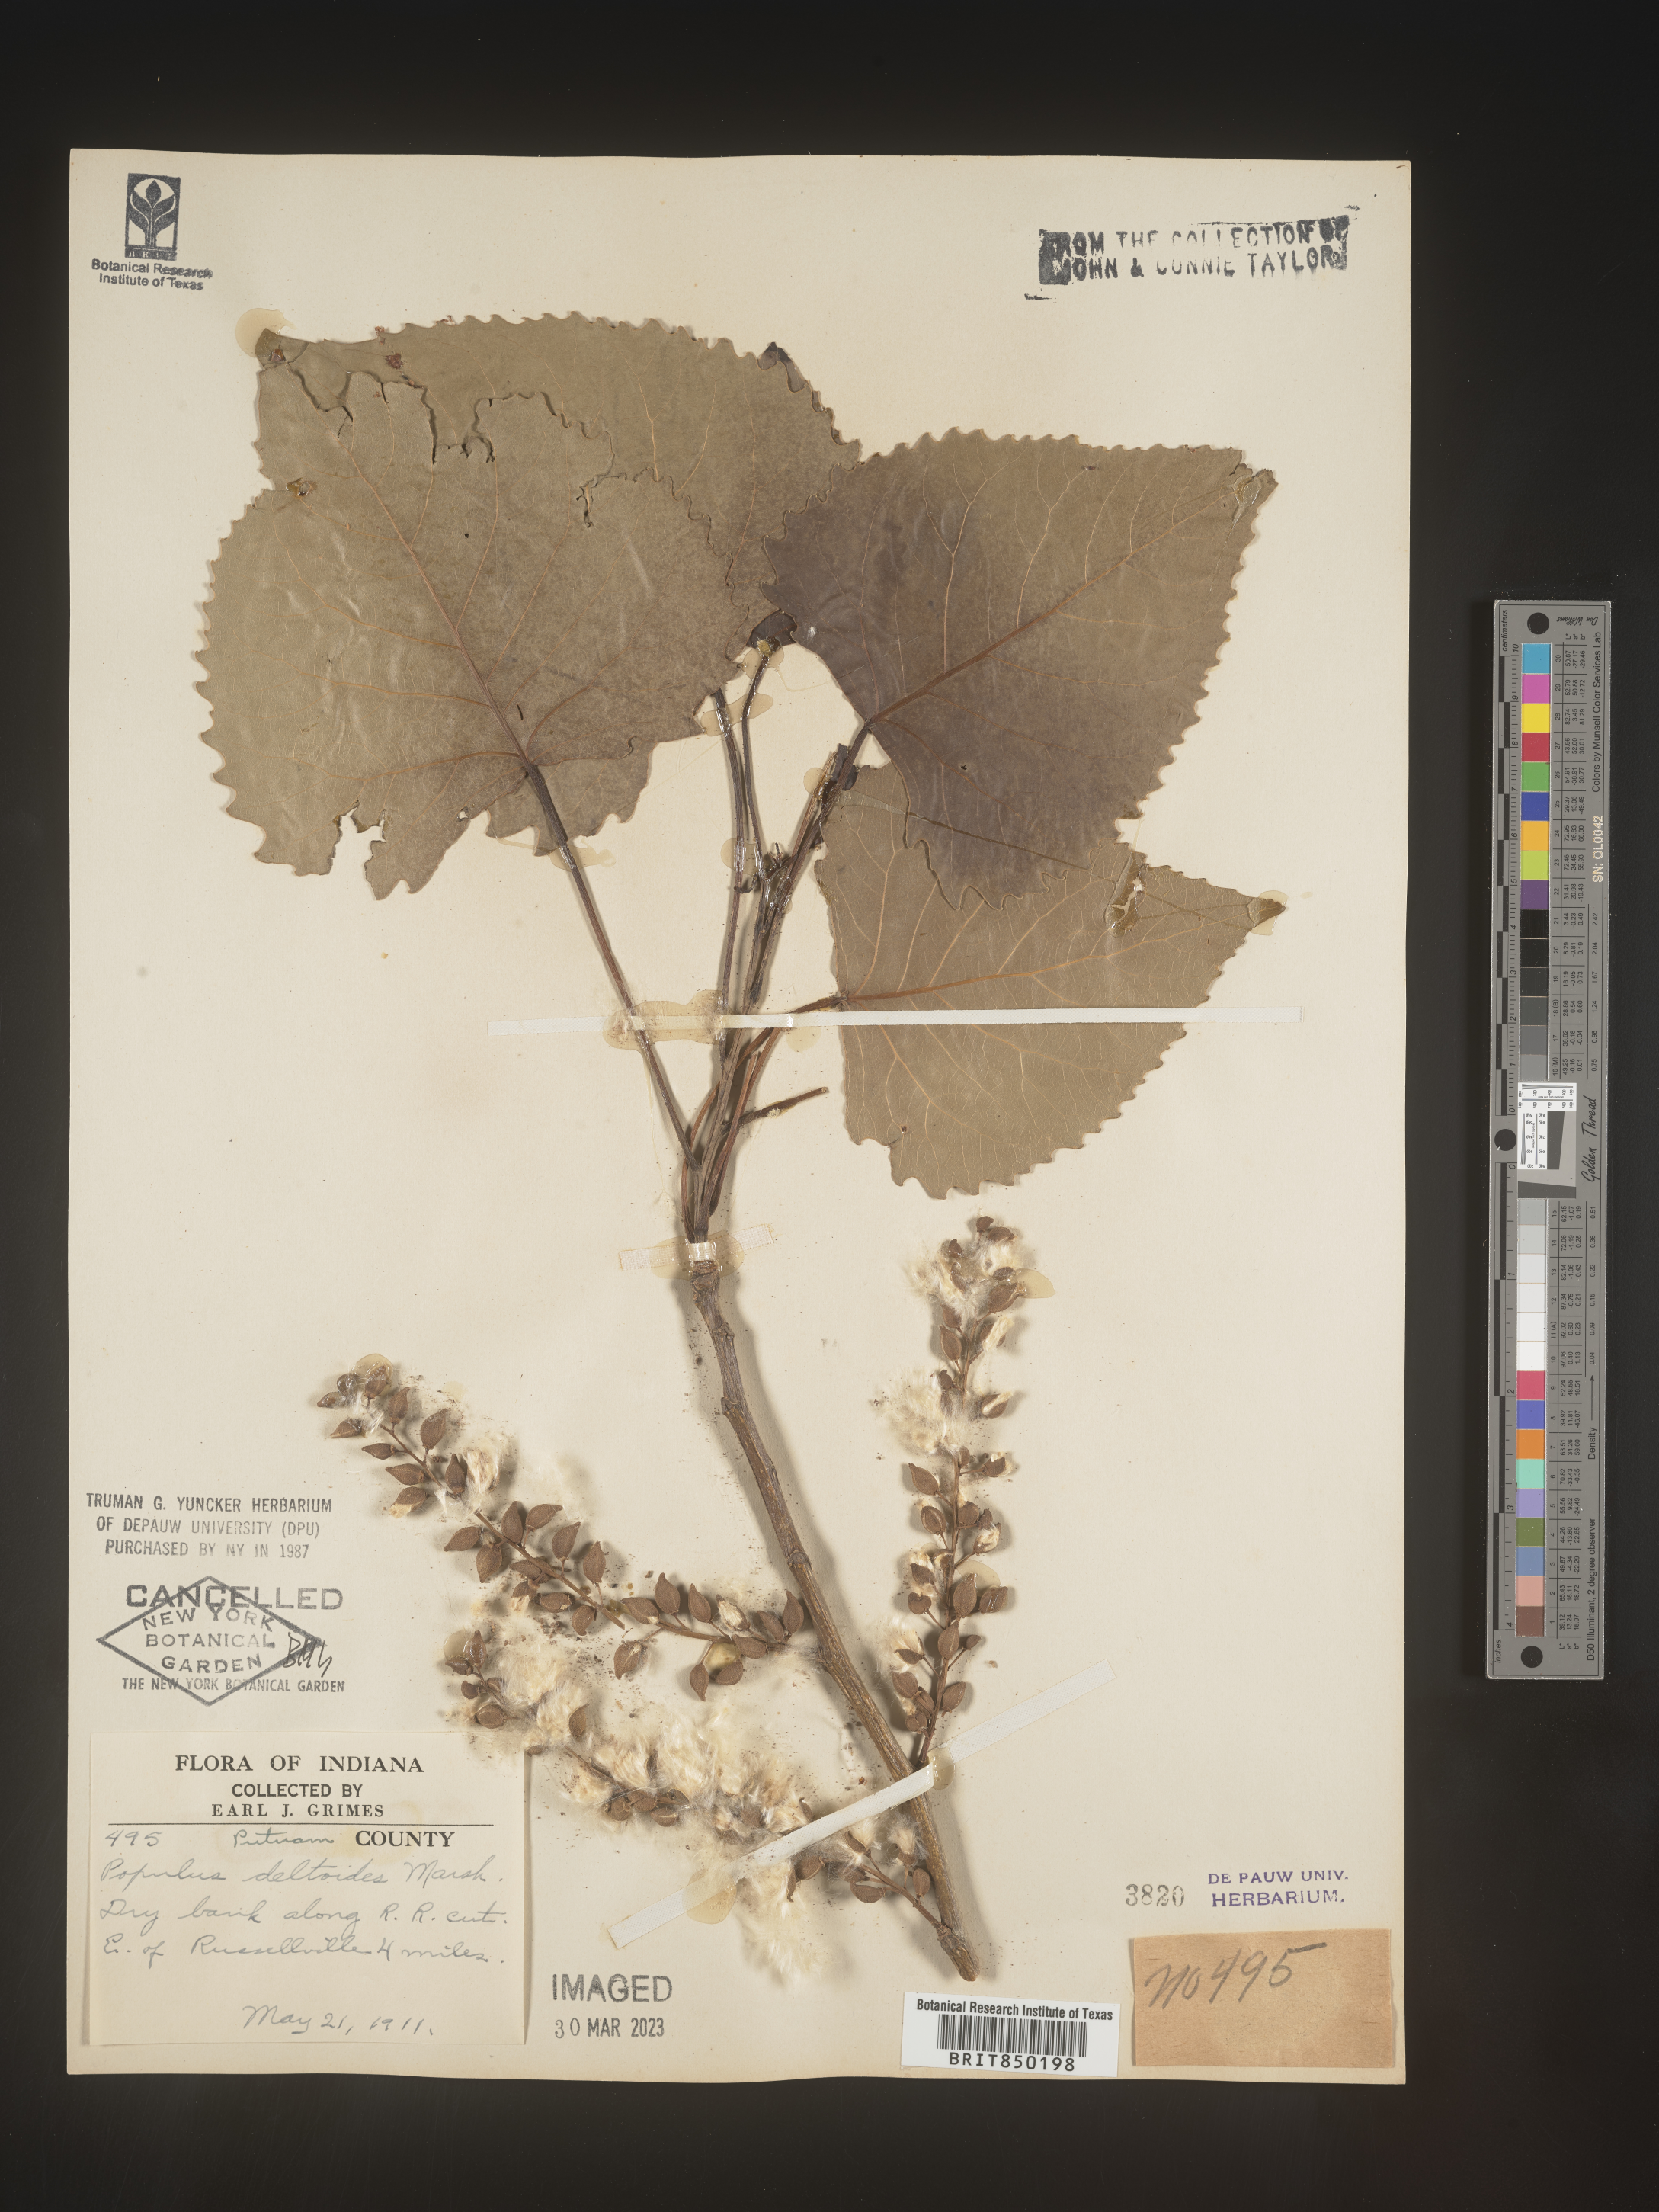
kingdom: Plantae
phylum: Tracheophyta
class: Magnoliopsida
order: Malpighiales
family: Salicaceae
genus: Populus
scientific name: Populus deltoides
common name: Eastern cottonwood
